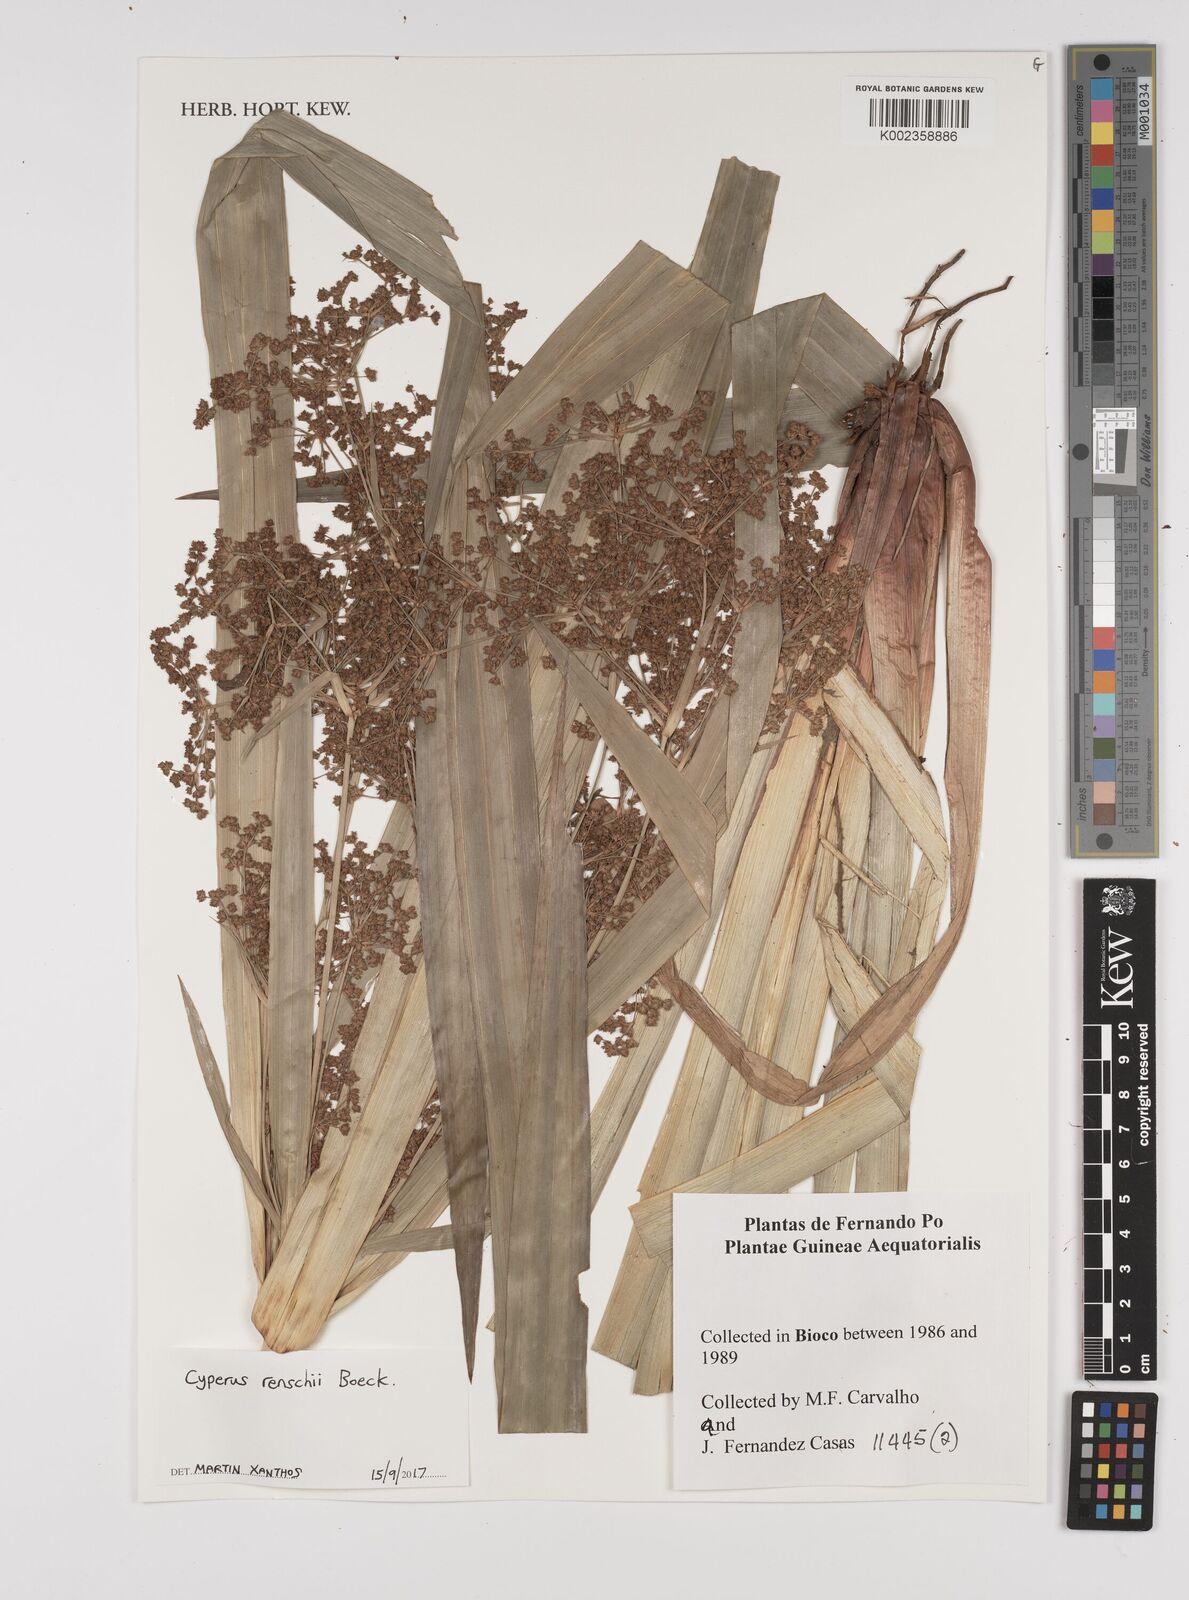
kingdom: Plantae
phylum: Tracheophyta
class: Liliopsida
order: Poales
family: Cyperaceae
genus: Cyperus
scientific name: Cyperus renschii
